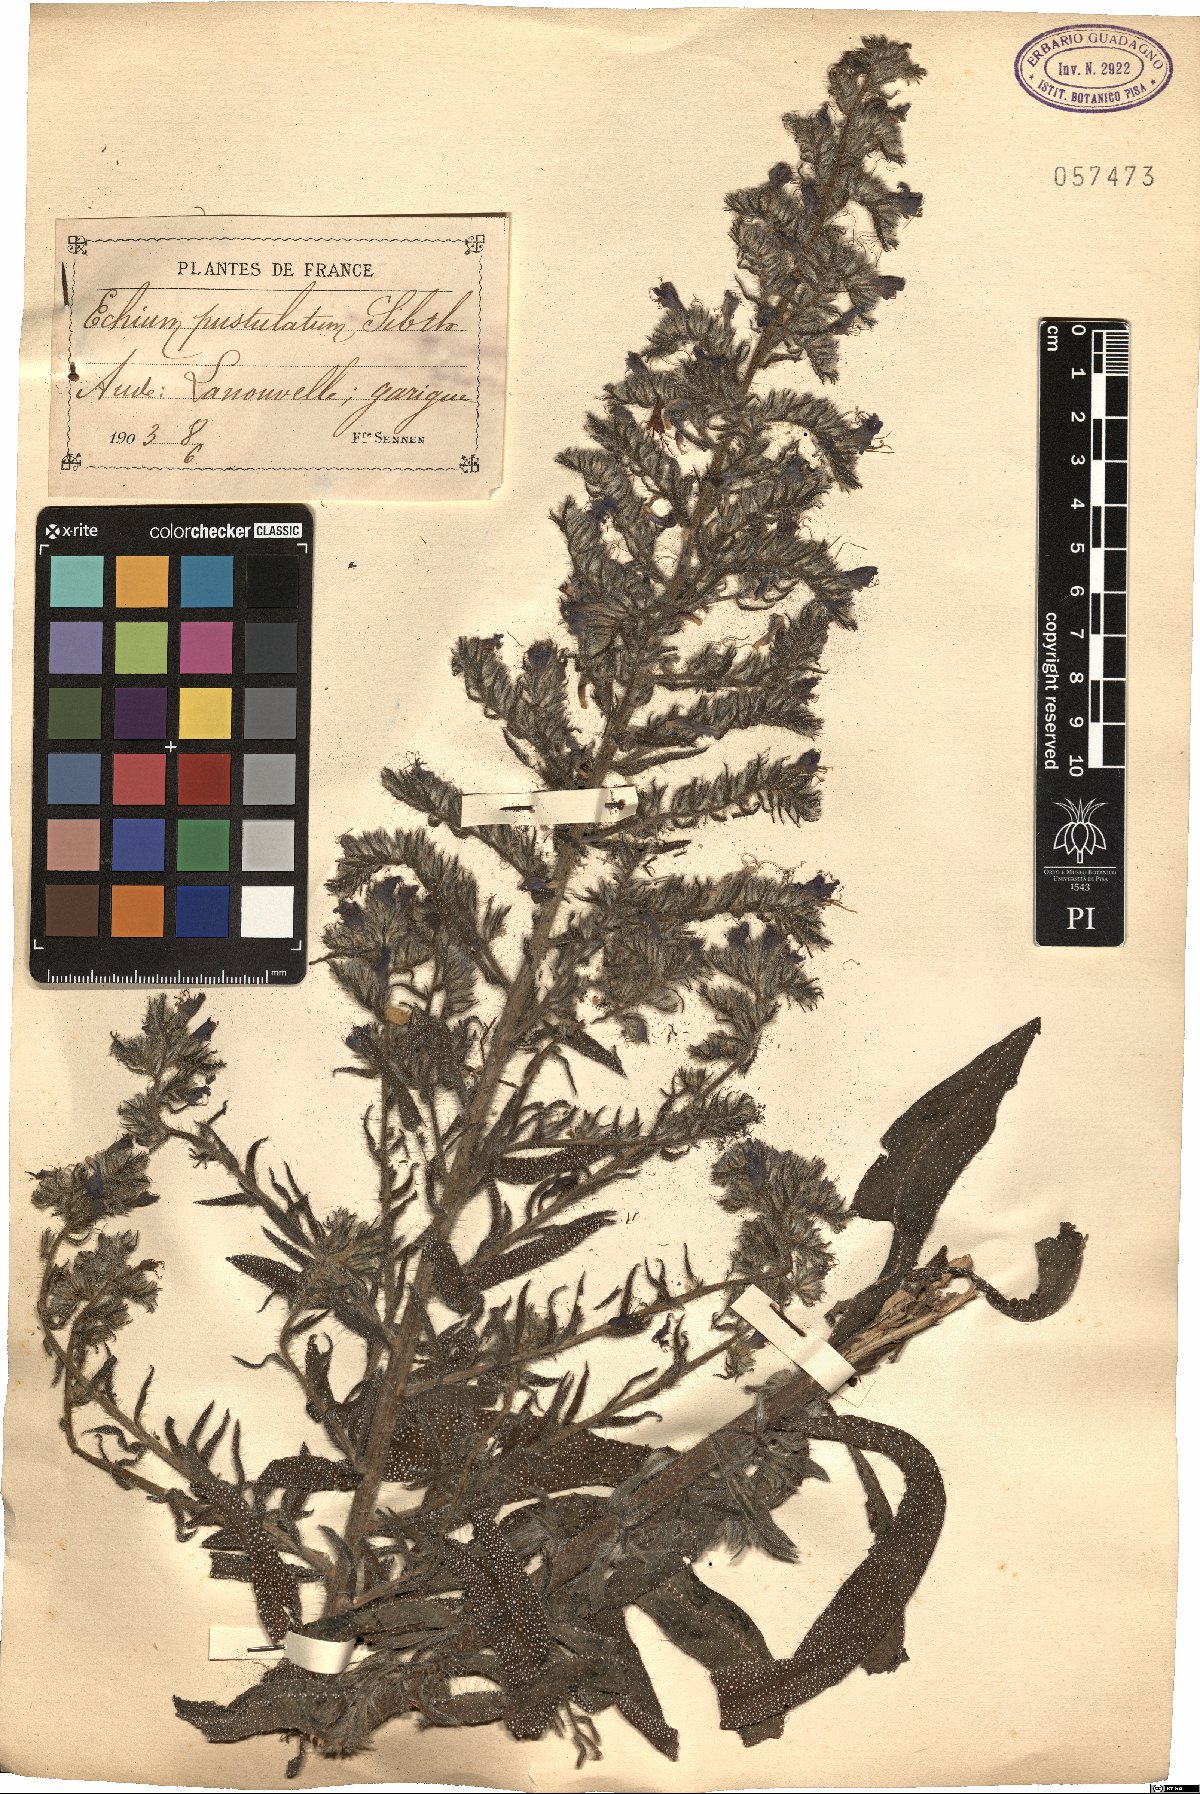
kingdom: Plantae
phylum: Tracheophyta
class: Magnoliopsida
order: Boraginales
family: Boraginaceae
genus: Echium
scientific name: Echium vulgare
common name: Common viper's bugloss
